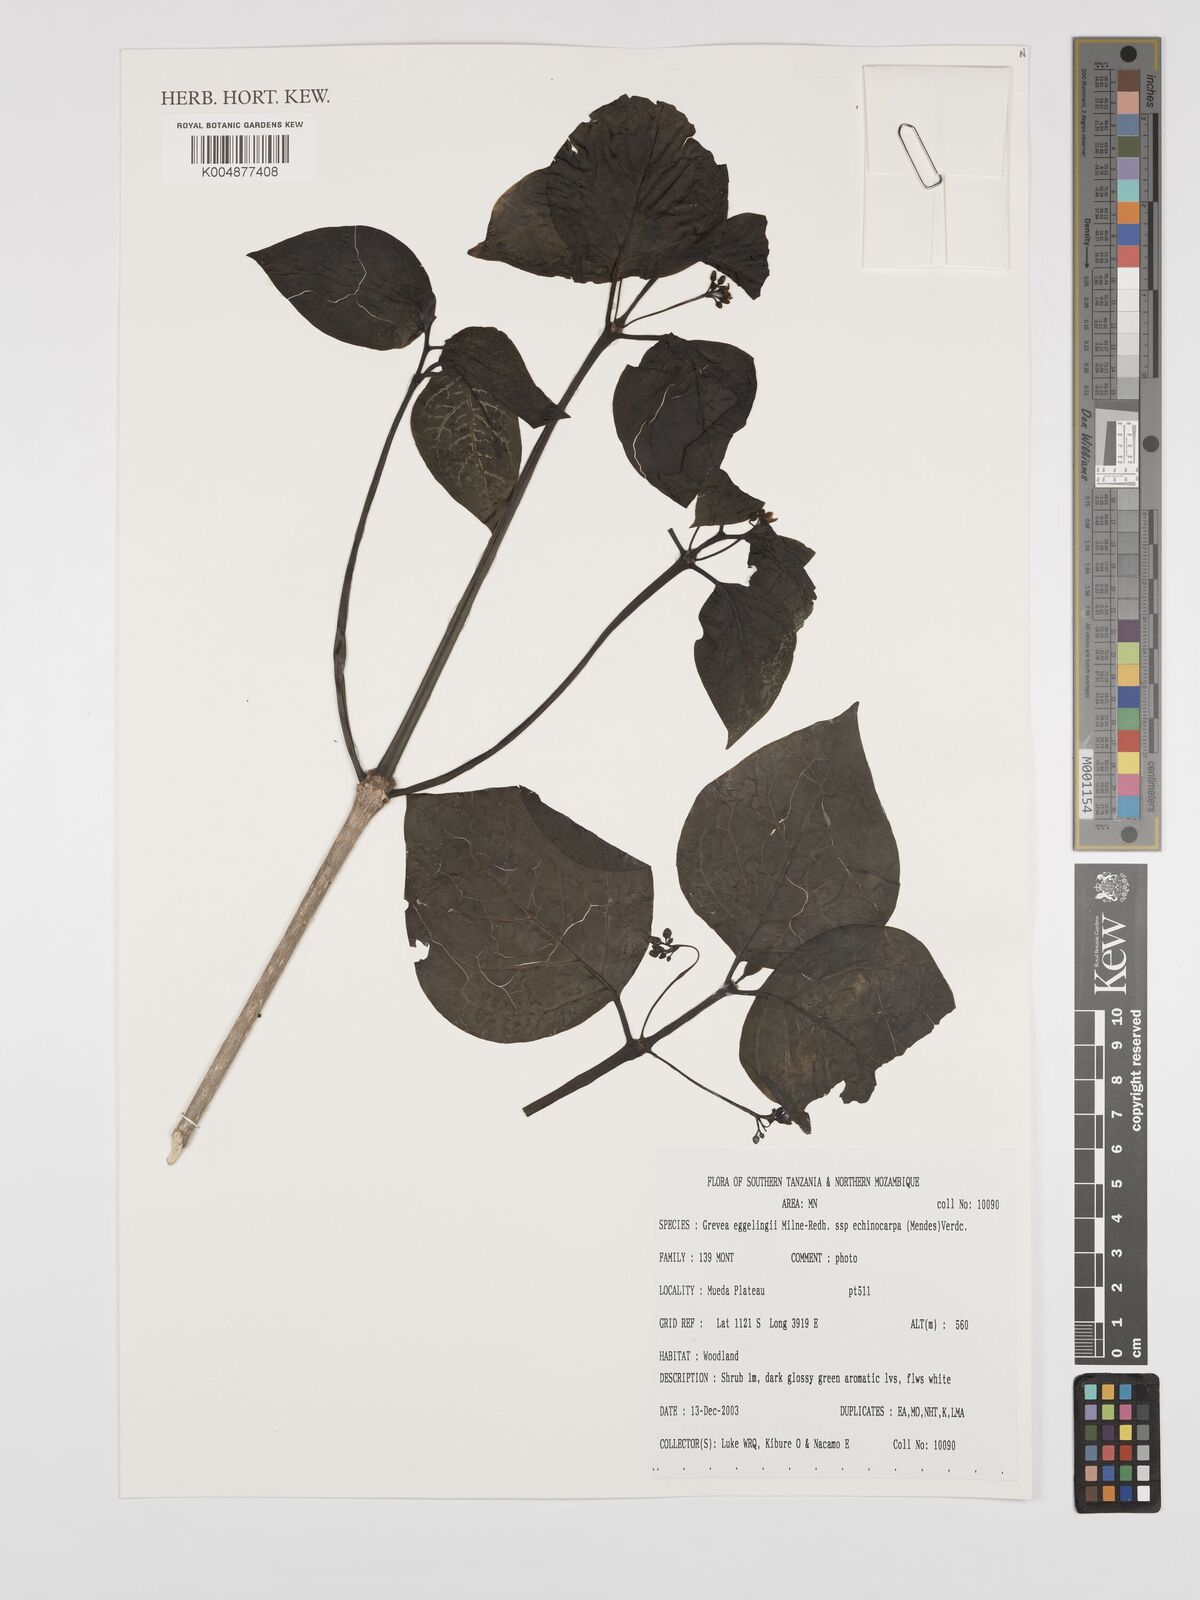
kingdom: Plantae
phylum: Tracheophyta
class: Magnoliopsida
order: Solanales
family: Montiniaceae
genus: Grevea
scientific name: Grevea eggelingii
